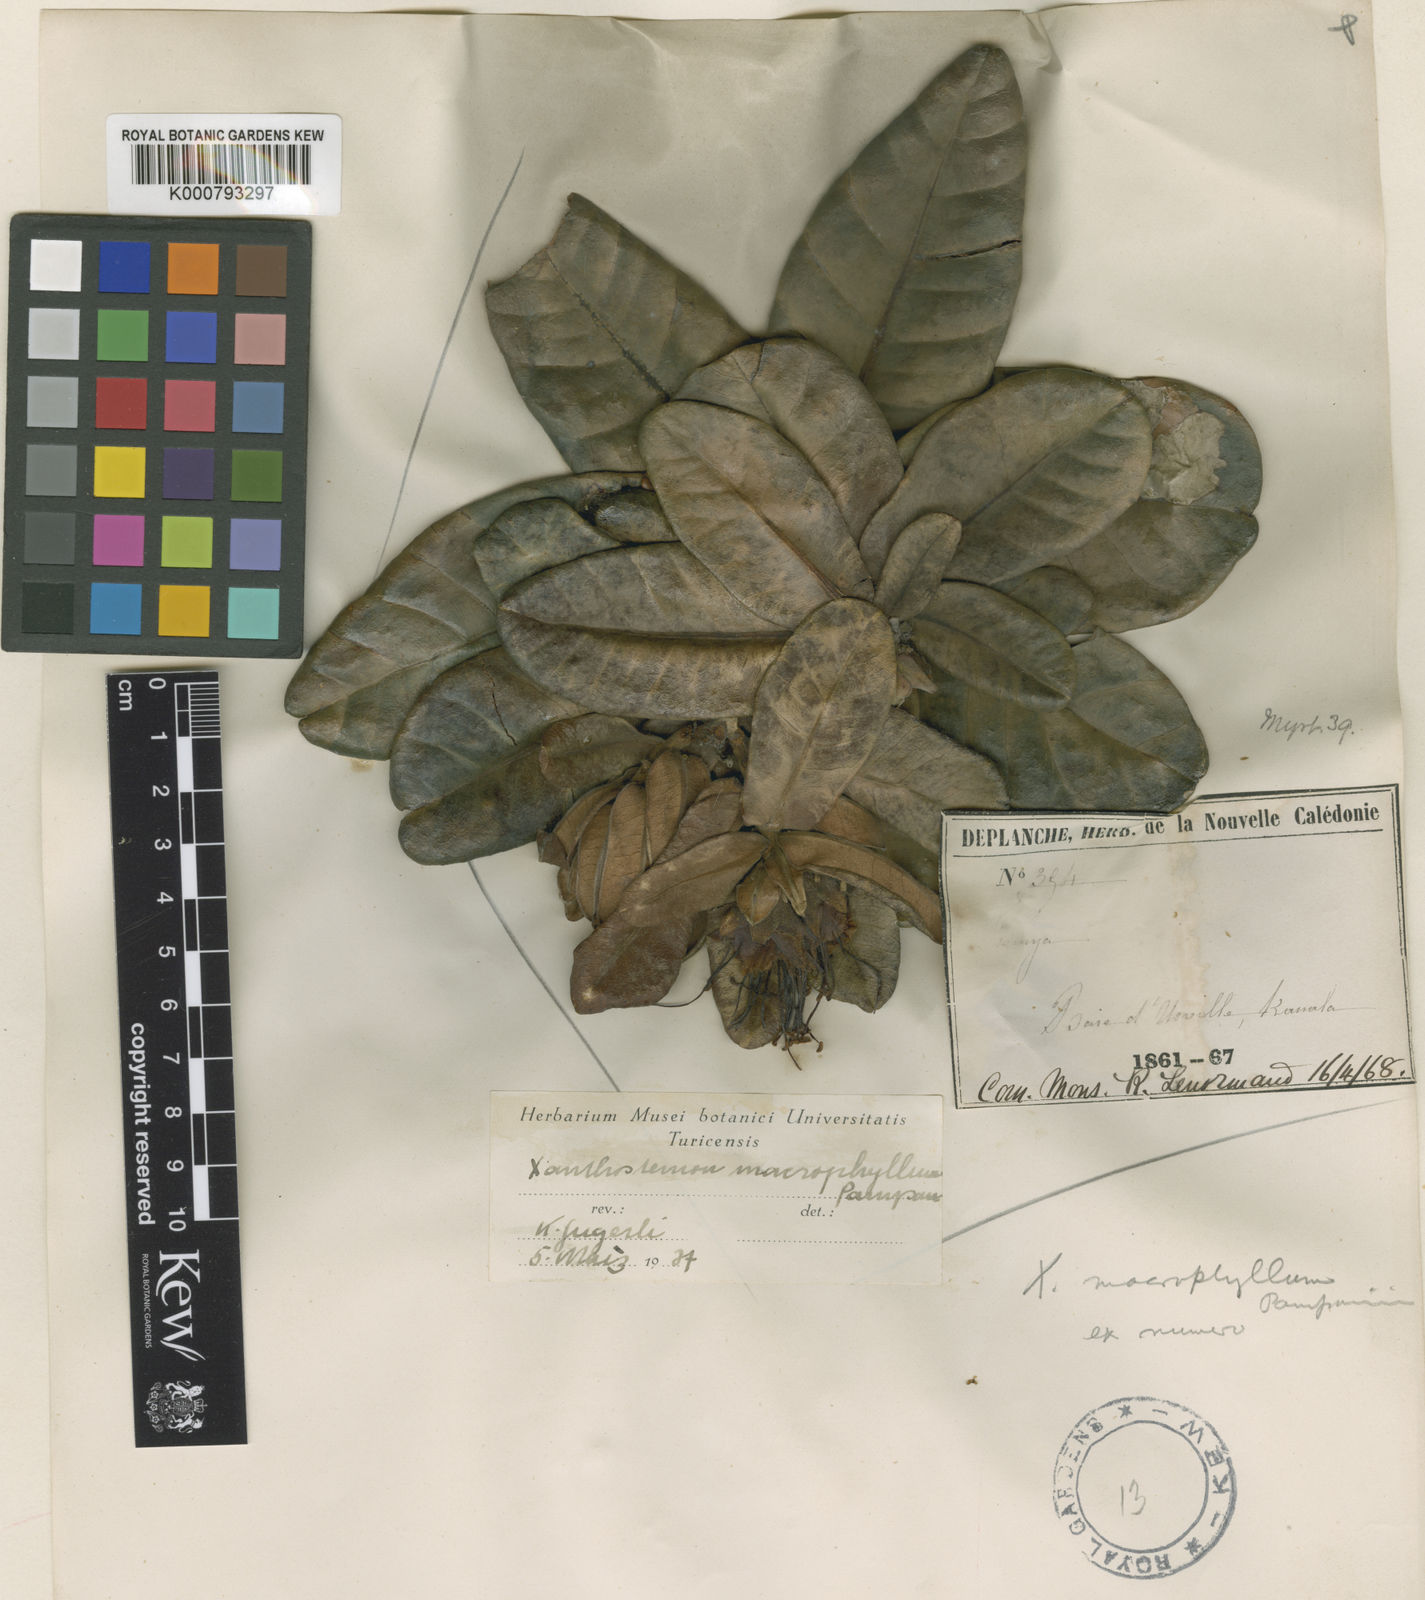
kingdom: Plantae
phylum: Tracheophyta
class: Magnoliopsida
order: Myrtales
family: Myrtaceae
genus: Xanthostemon
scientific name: Xanthostemon macrophyllus
